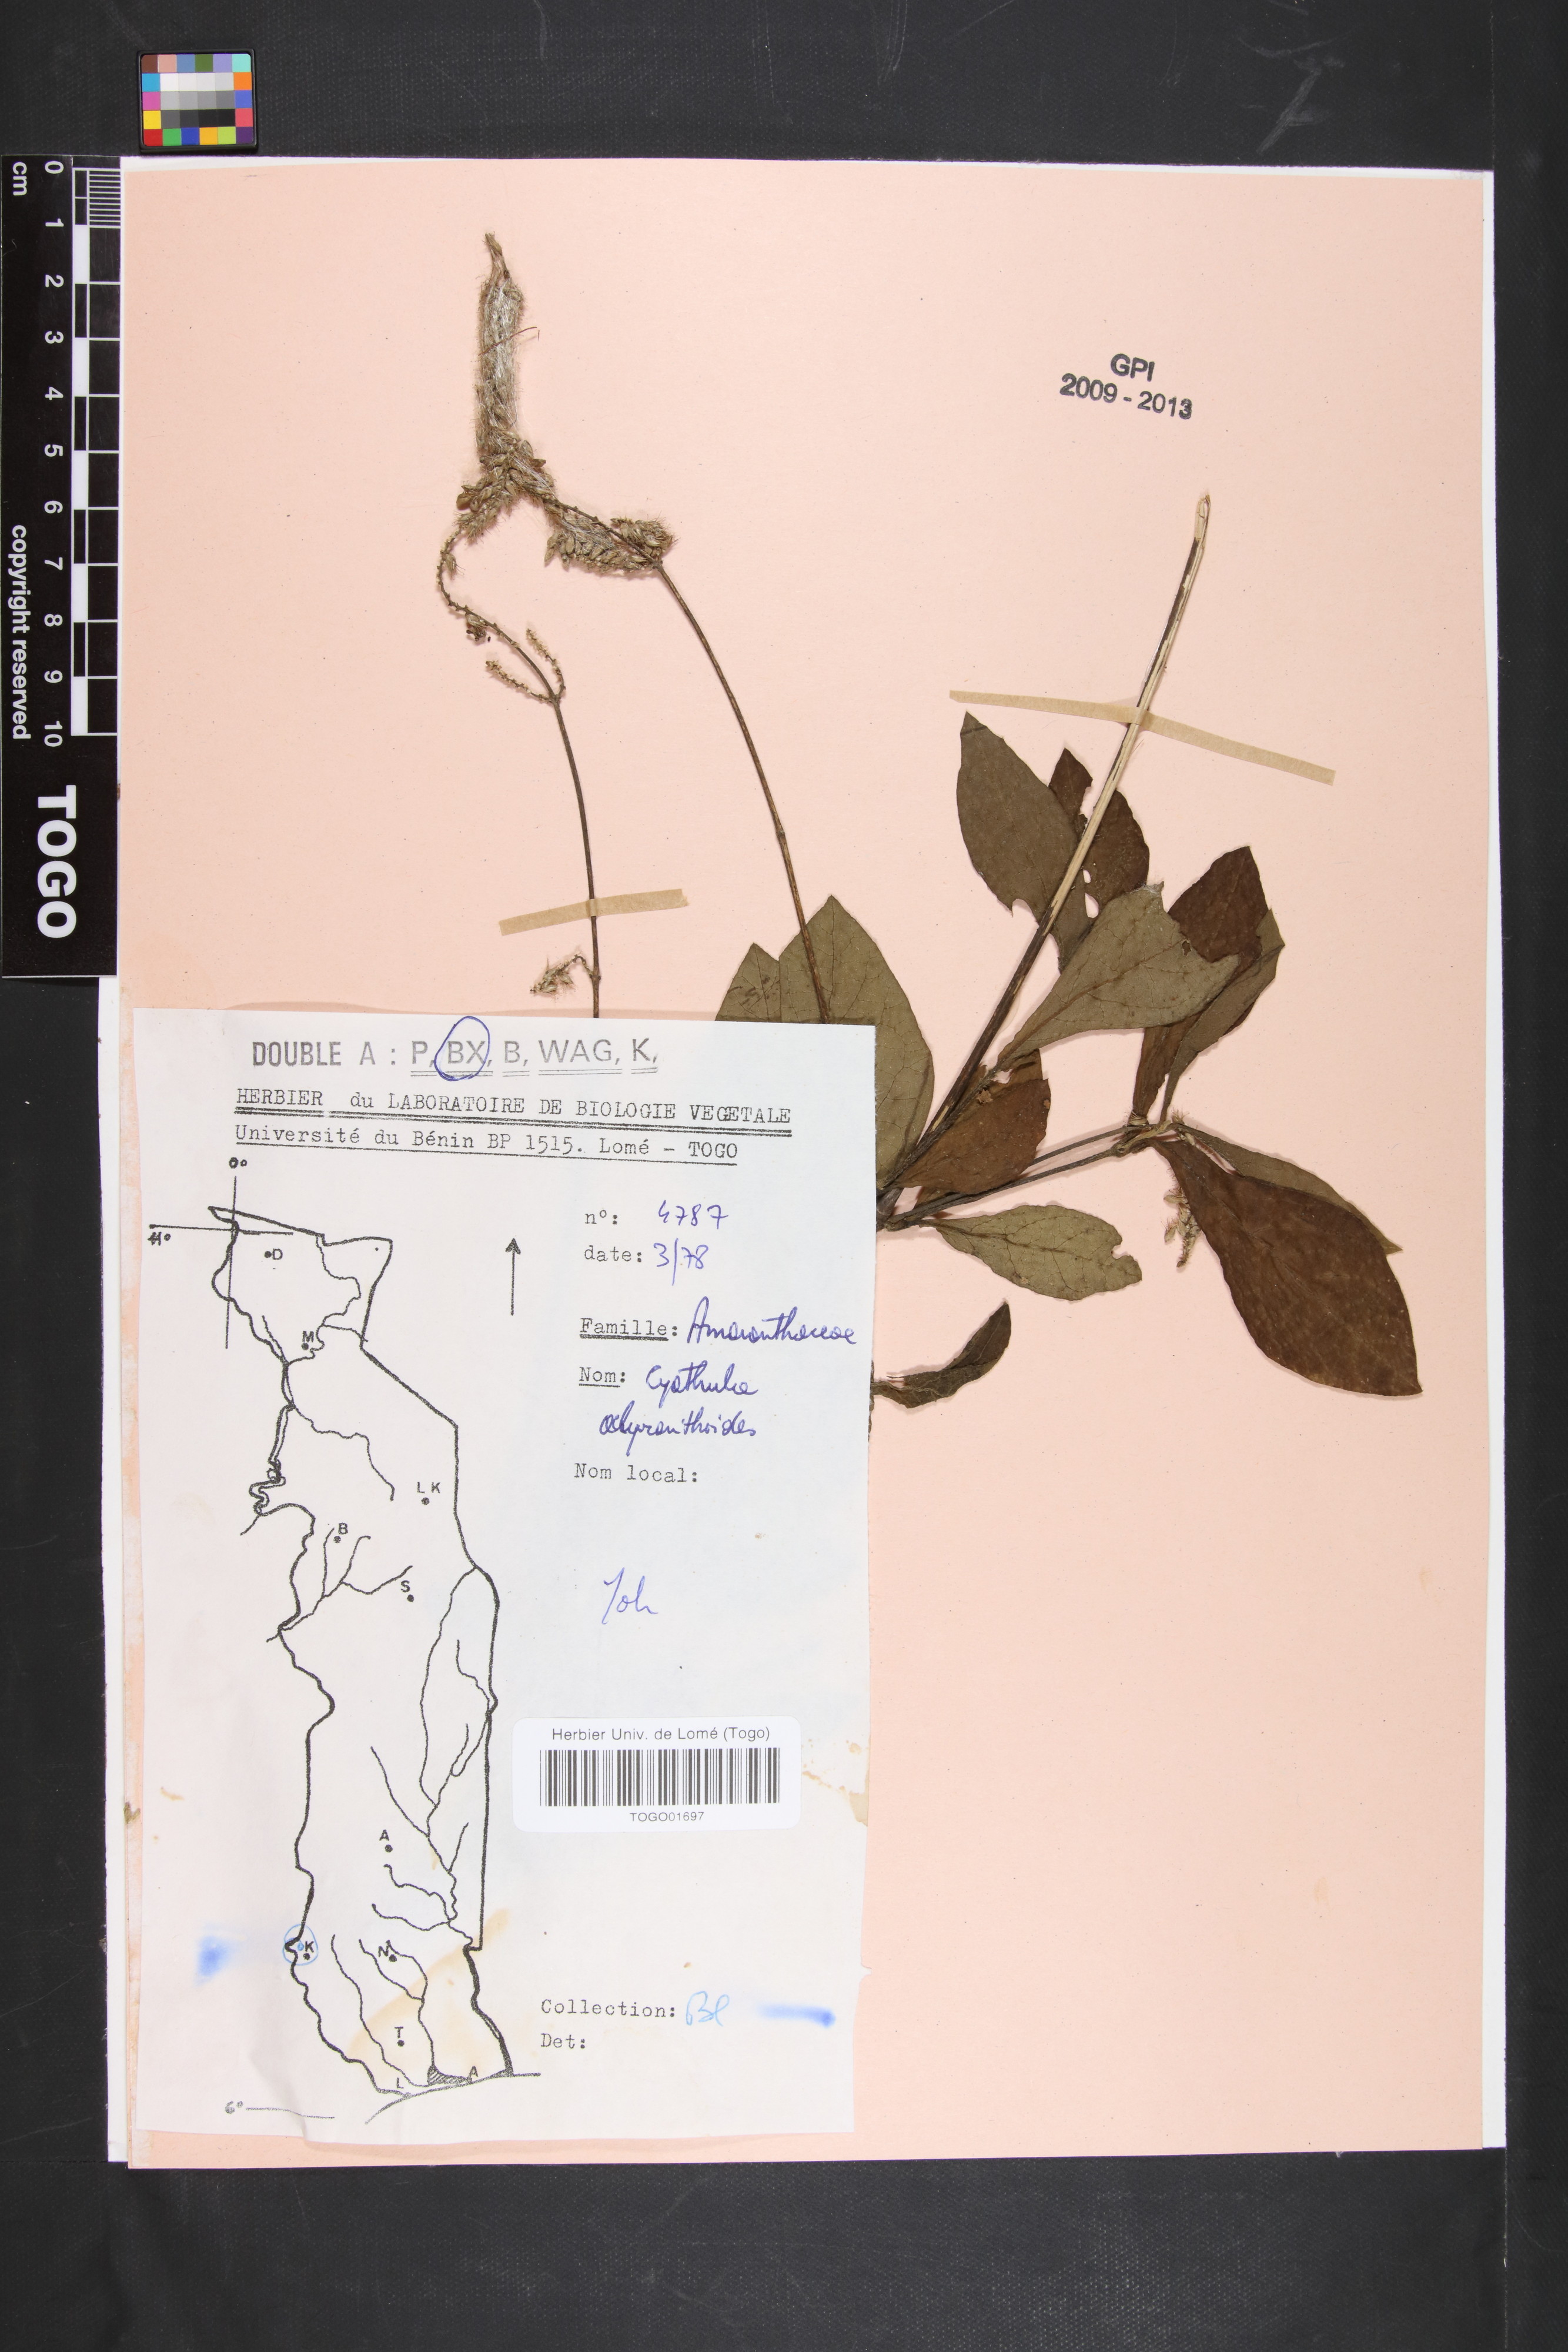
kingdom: Plantae
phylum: Tracheophyta
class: Magnoliopsida
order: Caryophyllales
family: Amaranthaceae
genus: Cyathula
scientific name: Cyathula achyranthoides
